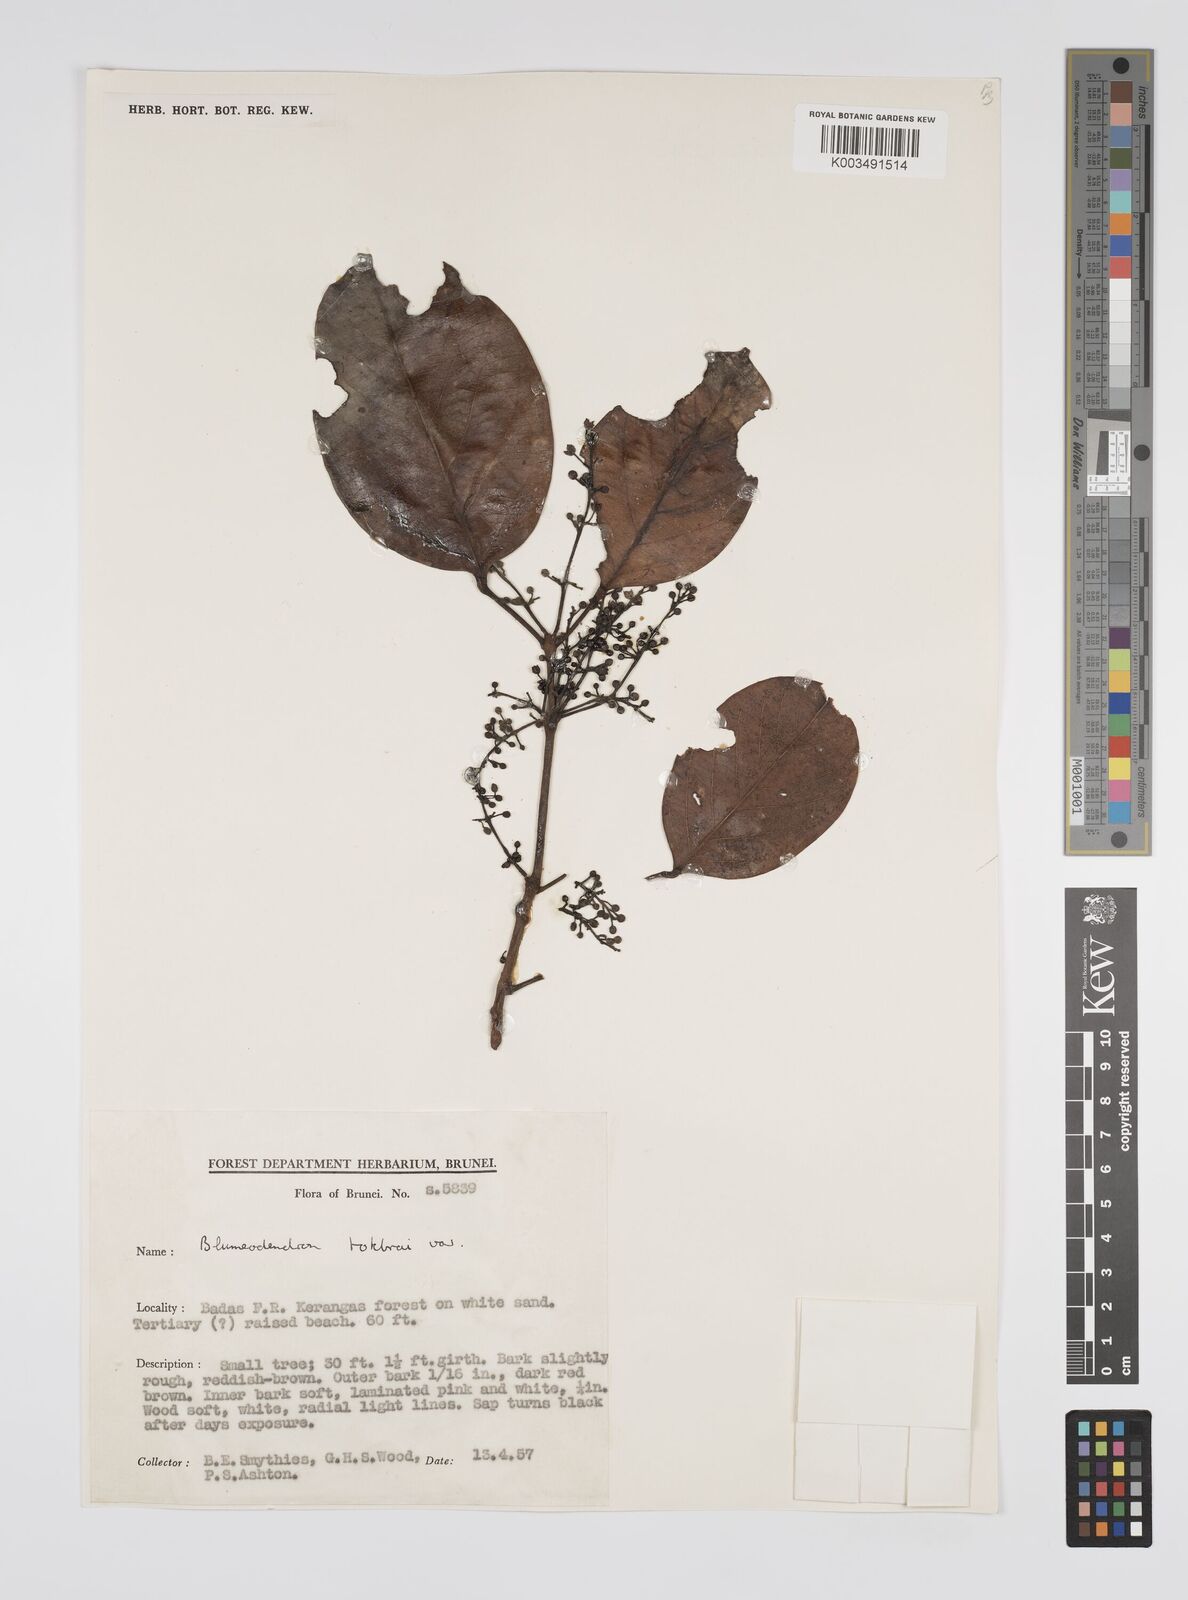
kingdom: Plantae
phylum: Tracheophyta
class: Magnoliopsida
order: Malpighiales
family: Euphorbiaceae
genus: Blumeodendron
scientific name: Blumeodendron tokbrai
